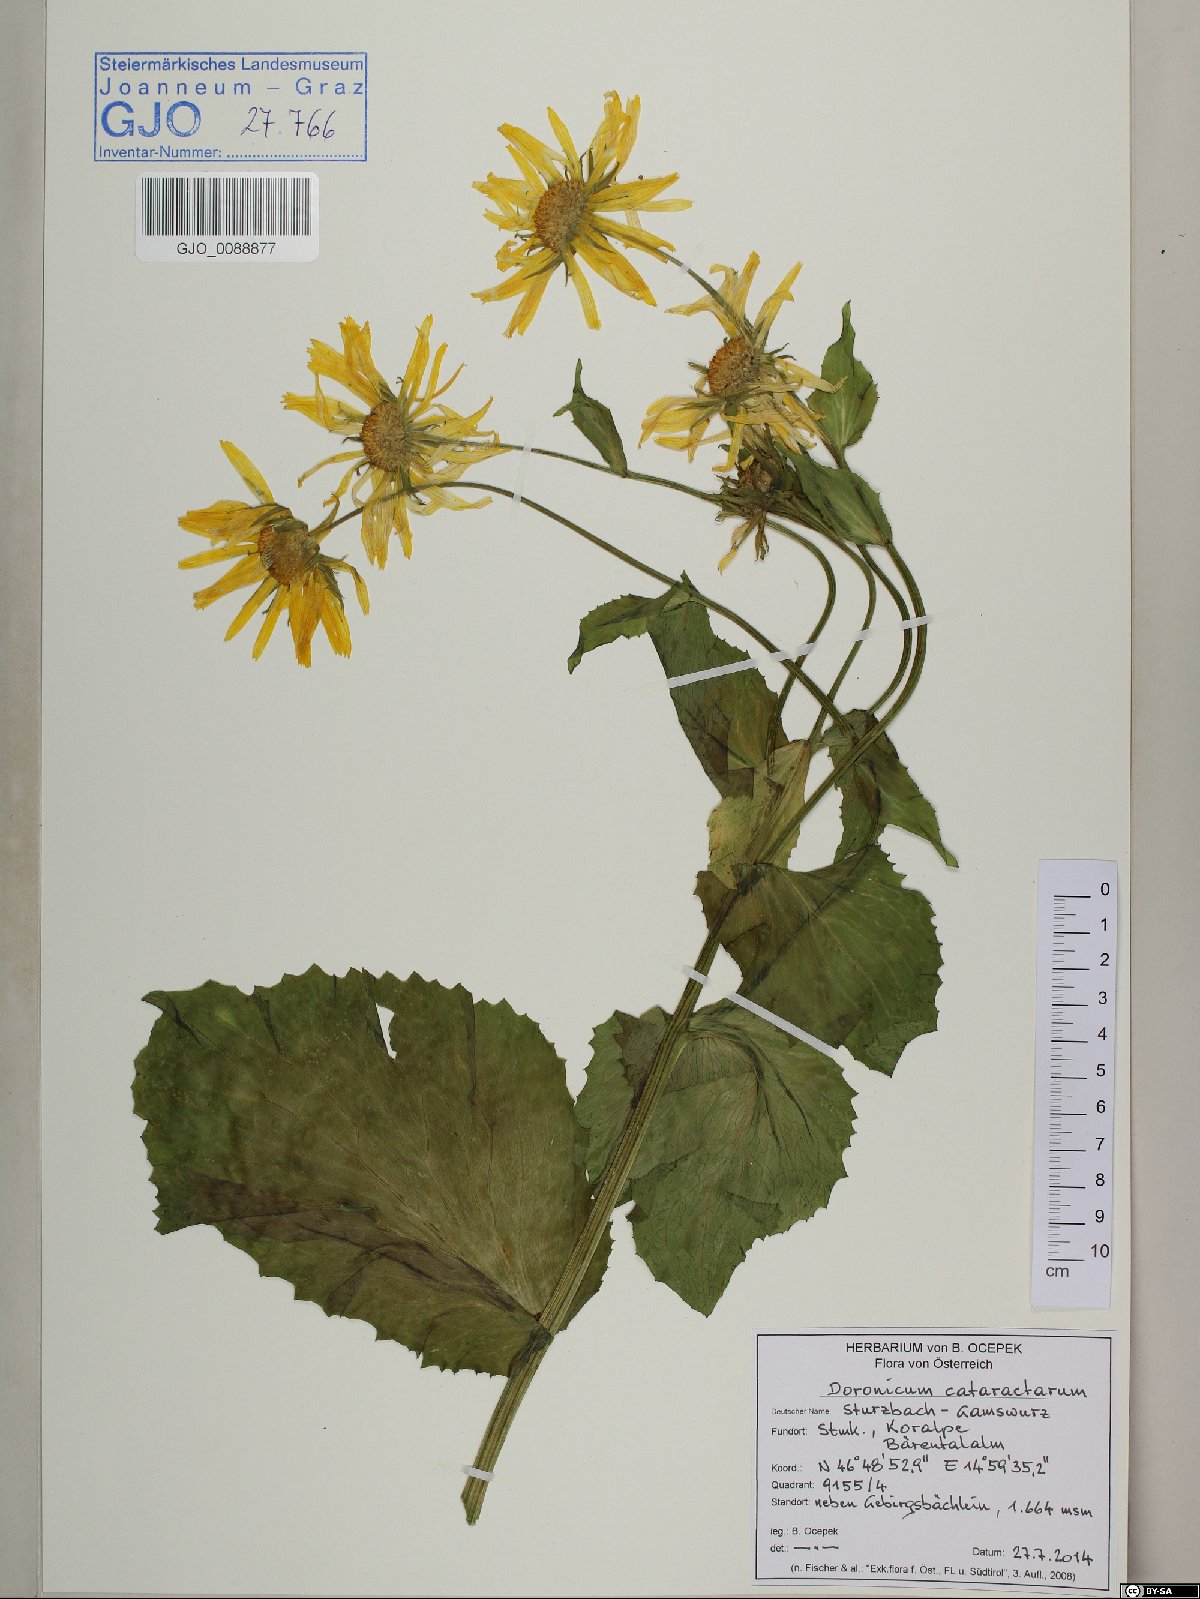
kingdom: Plantae
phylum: Tracheophyta
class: Magnoliopsida
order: Asterales
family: Asteraceae
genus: Doronicum
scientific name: Doronicum cataractarum
